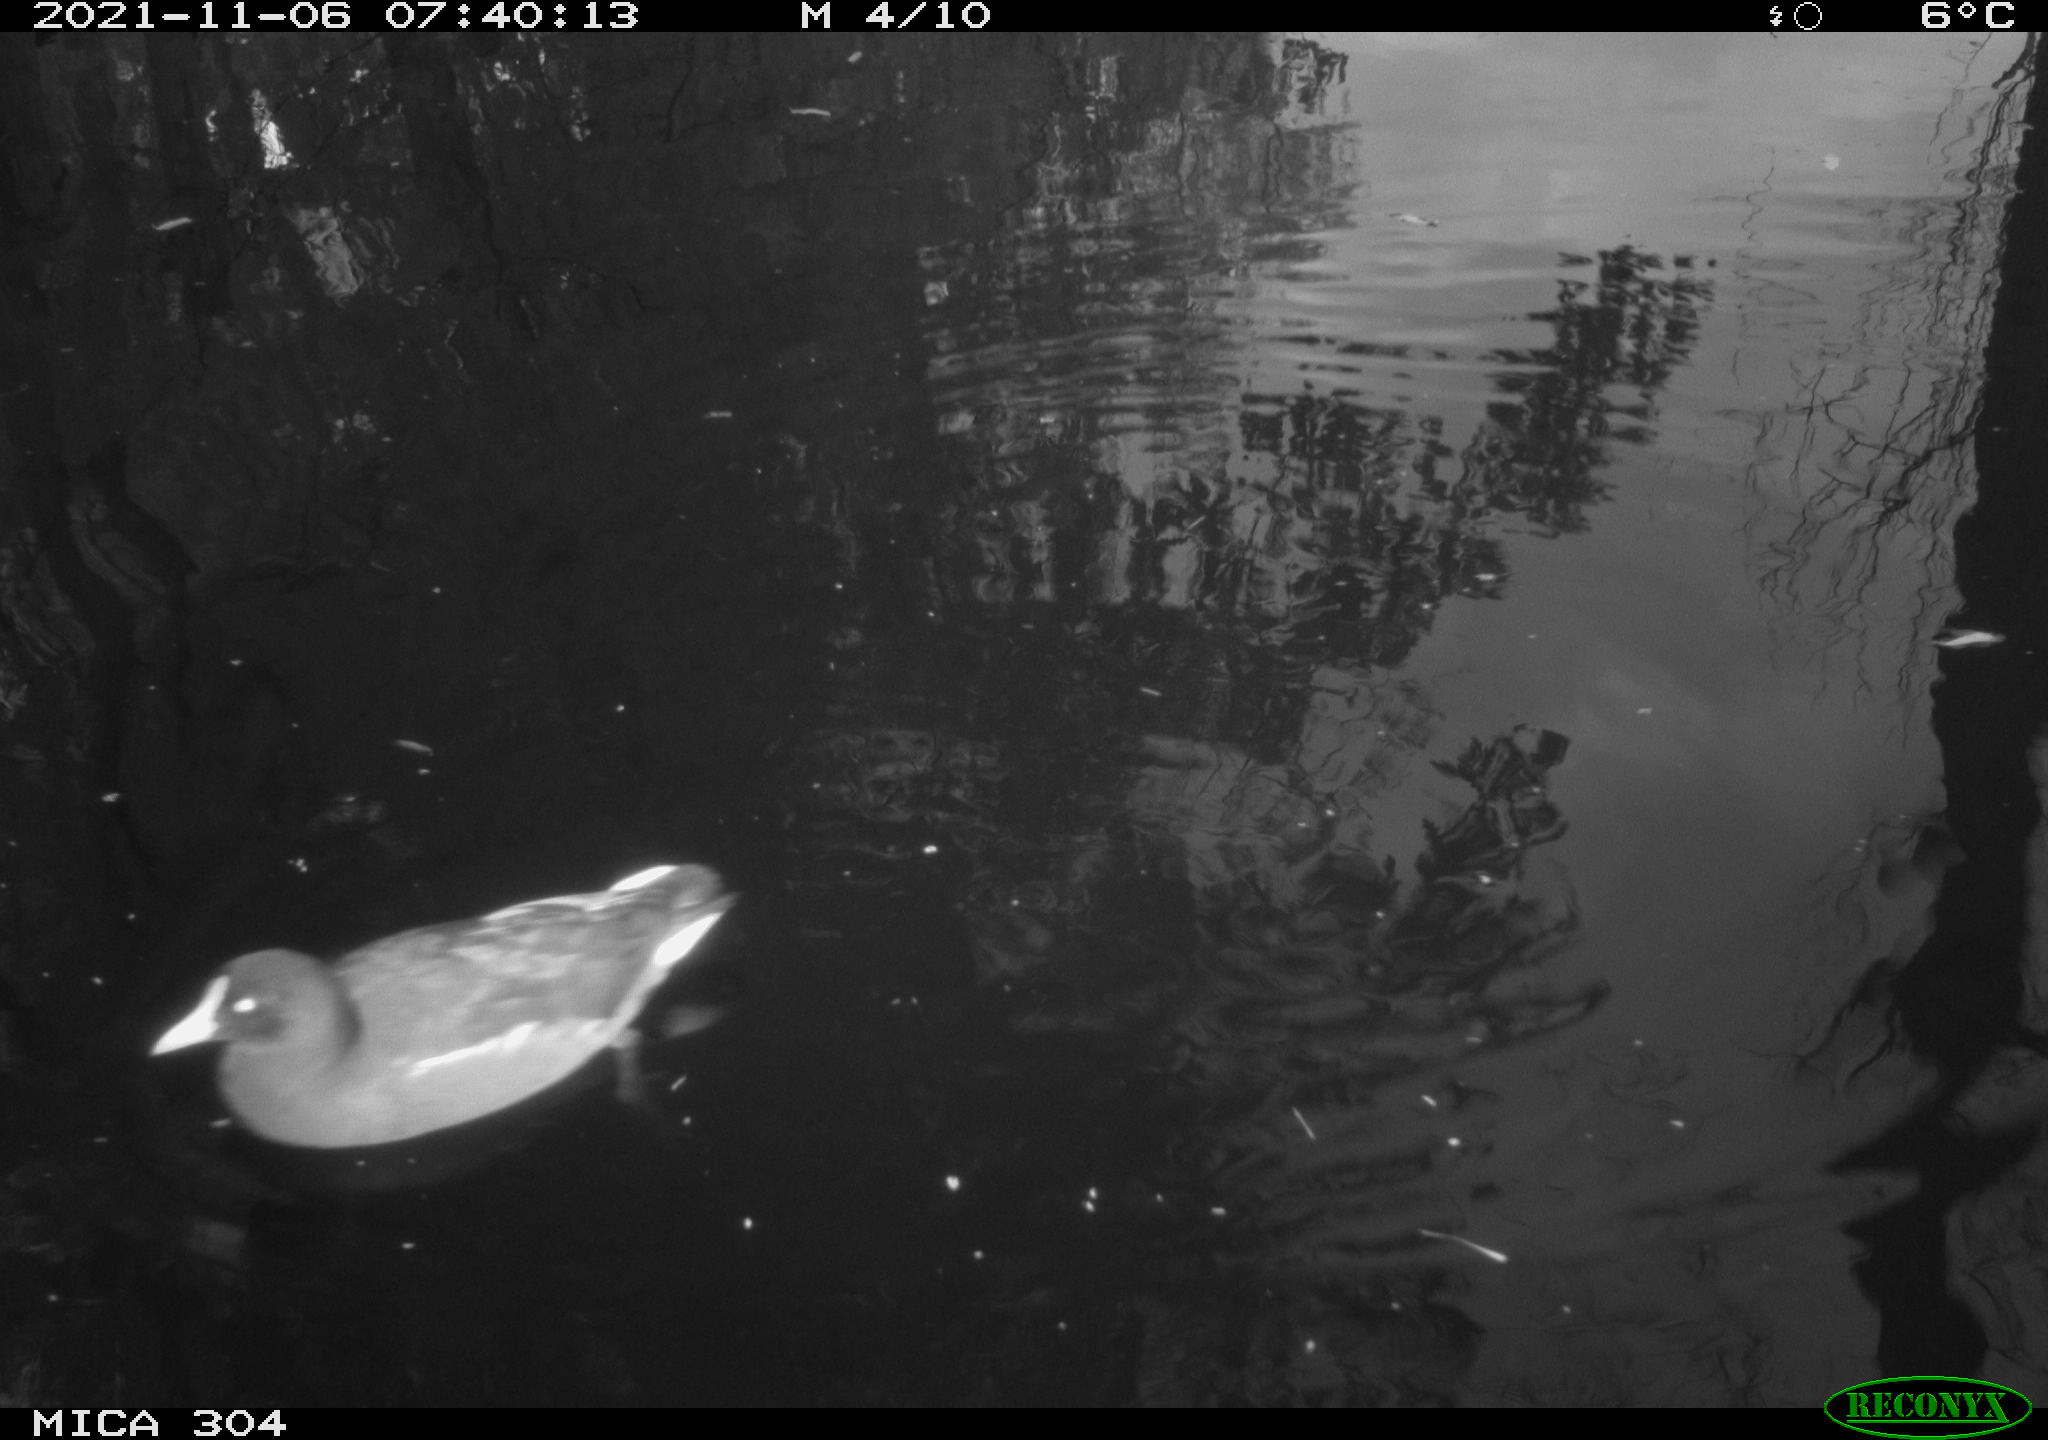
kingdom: Animalia
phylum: Chordata
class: Aves
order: Gruiformes
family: Rallidae
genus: Fulica
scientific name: Fulica atra
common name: Eurasian coot
